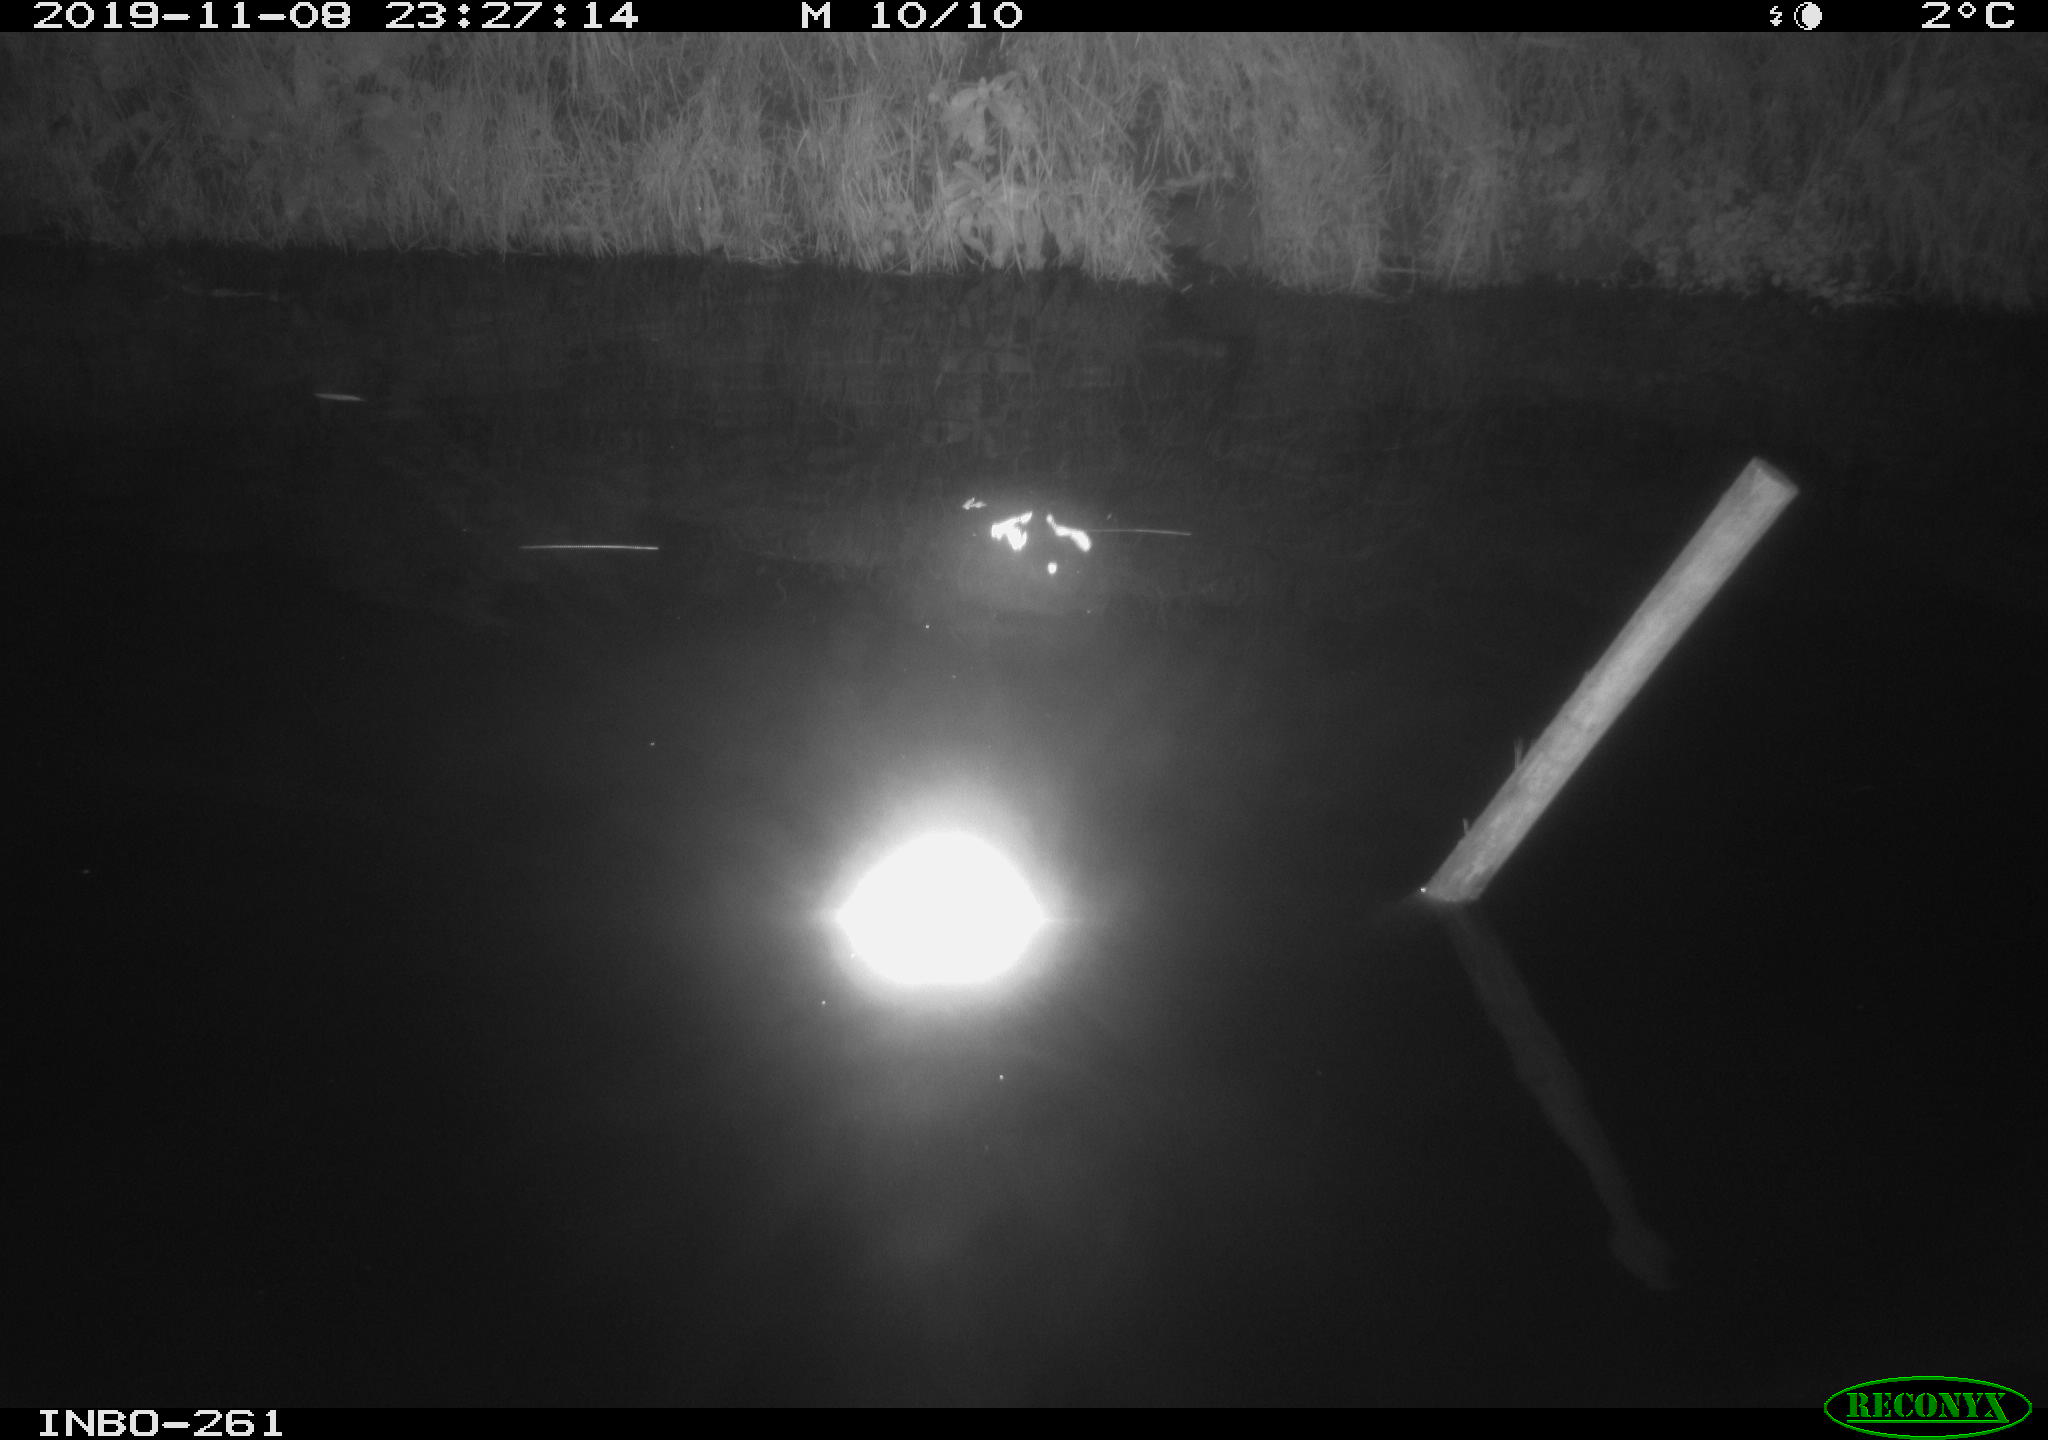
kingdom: Animalia
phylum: Chordata
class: Aves
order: Anseriformes
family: Anatidae
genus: Anas
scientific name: Anas platyrhynchos
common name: Mallard
